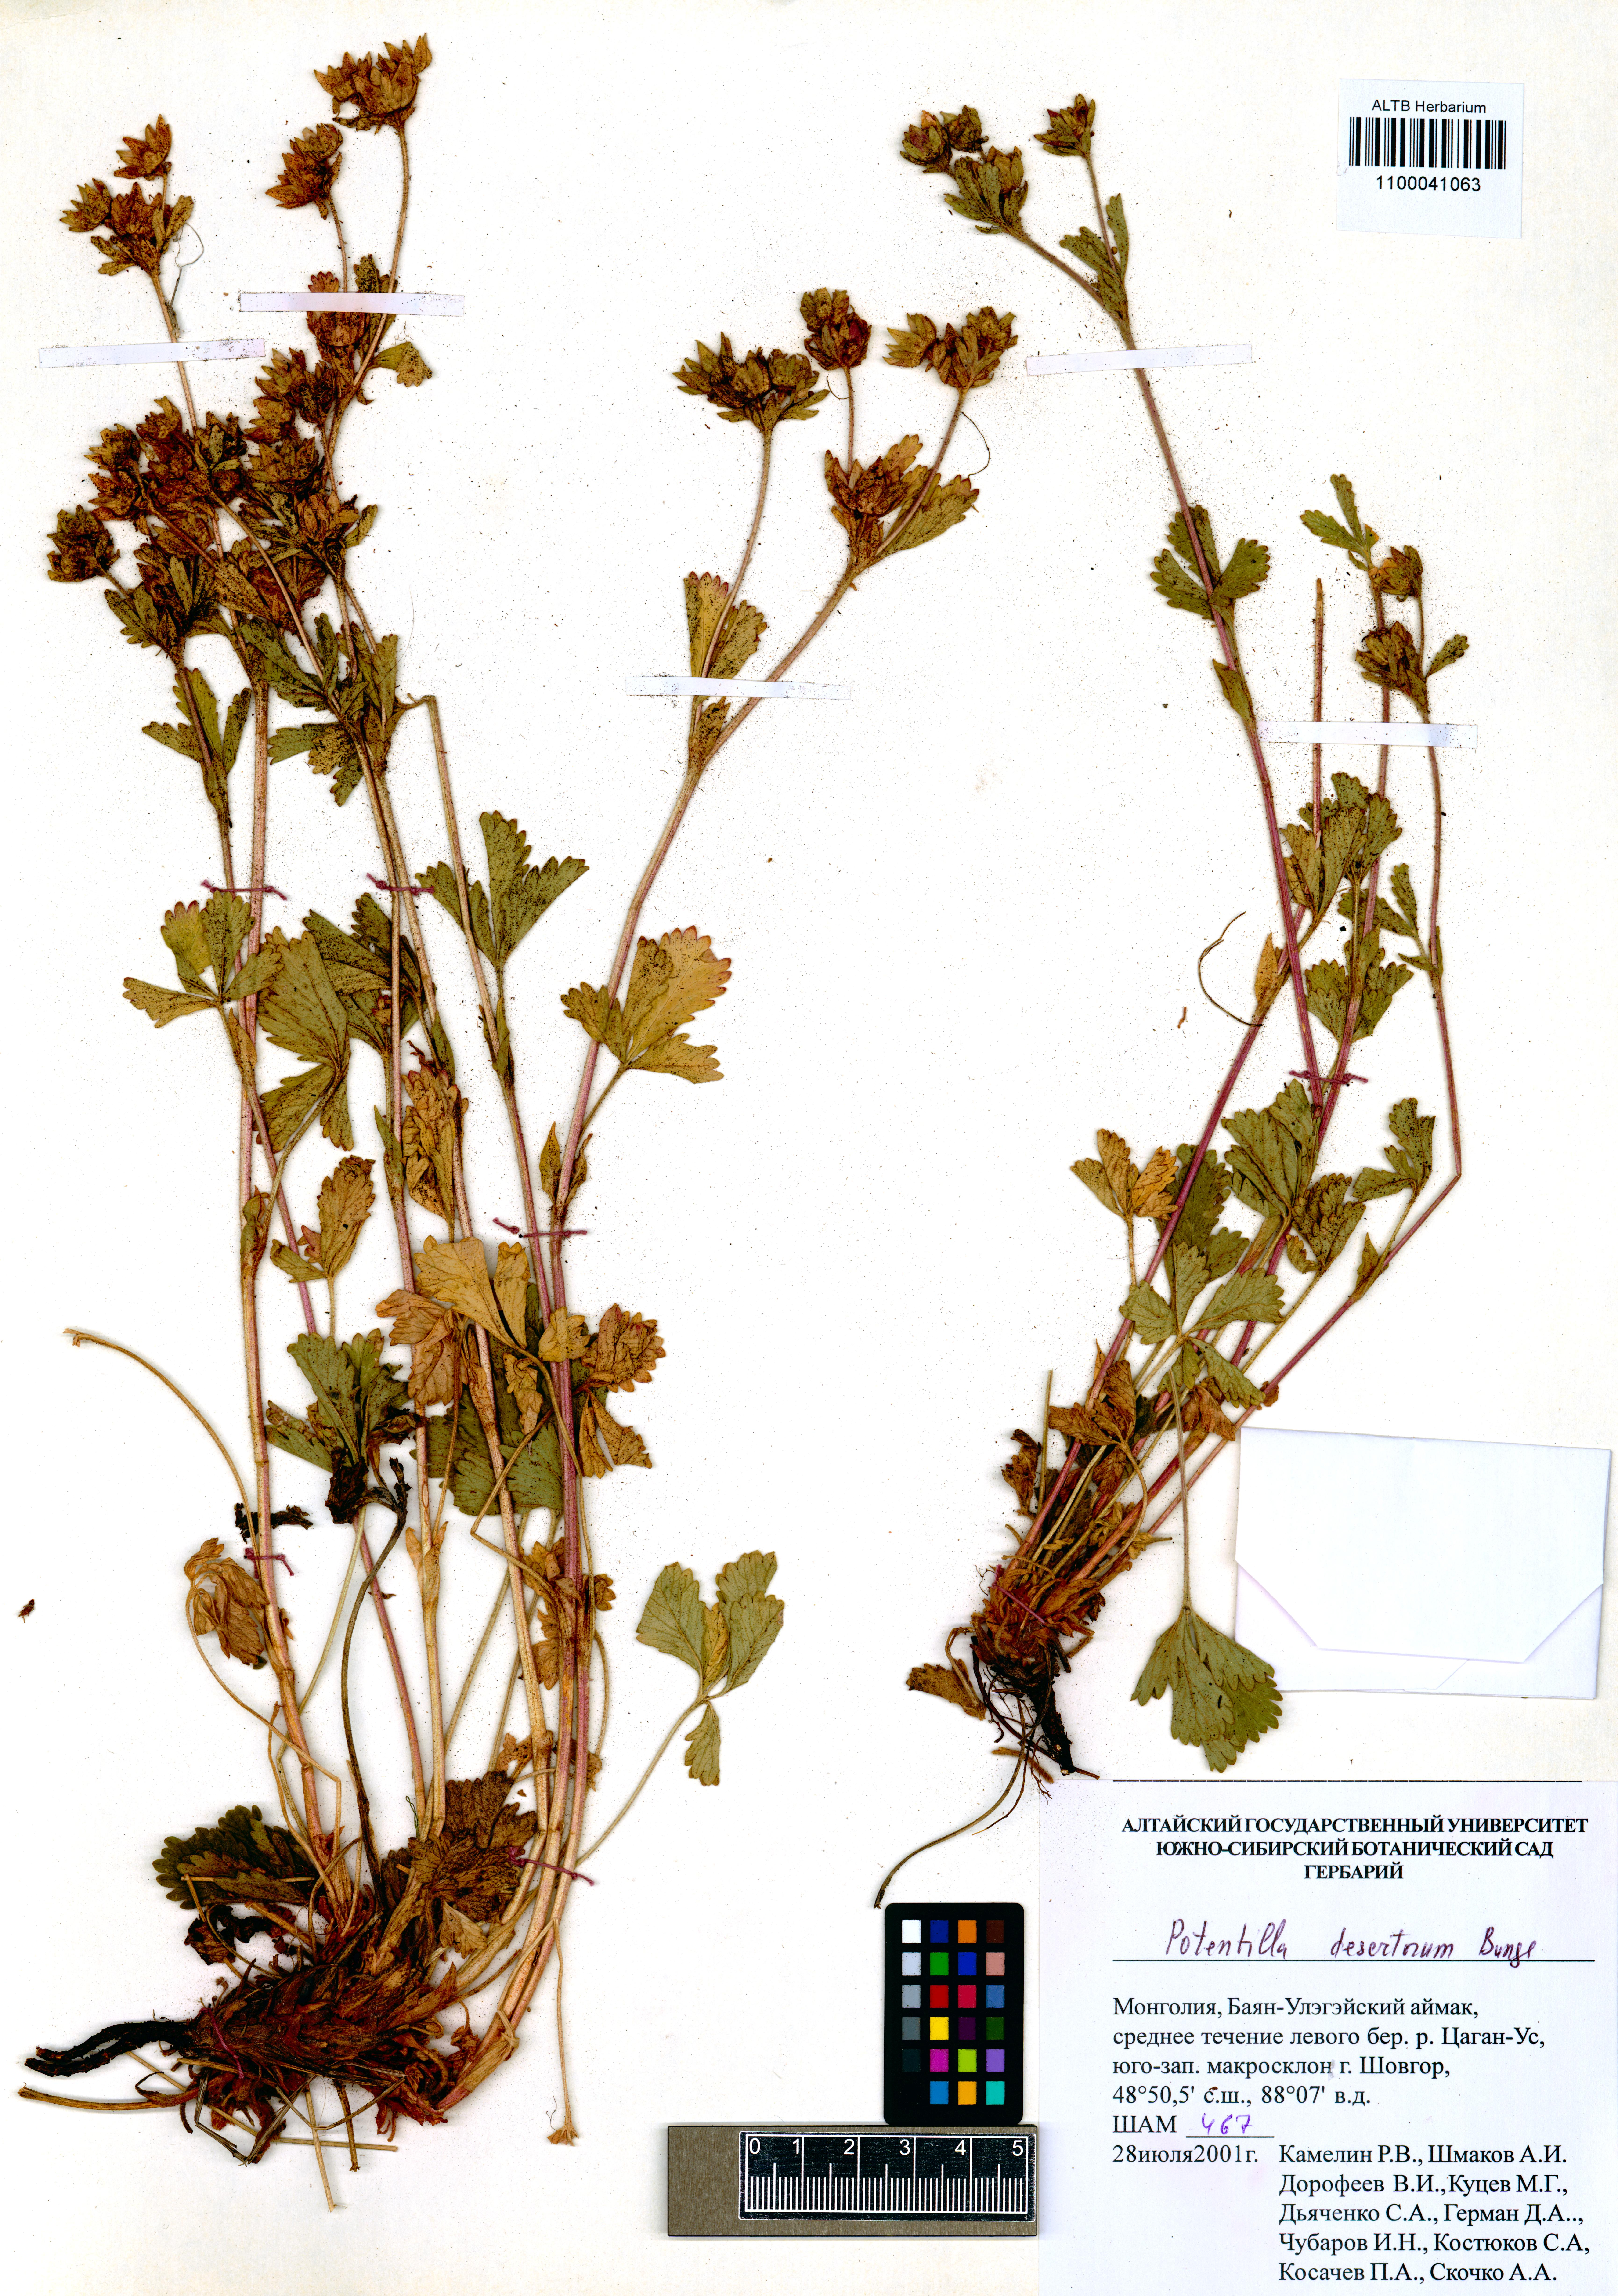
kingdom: Plantae
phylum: Tracheophyta
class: Magnoliopsida
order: Rosales
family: Rosaceae
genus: Potentilla
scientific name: Potentilla desertorum
